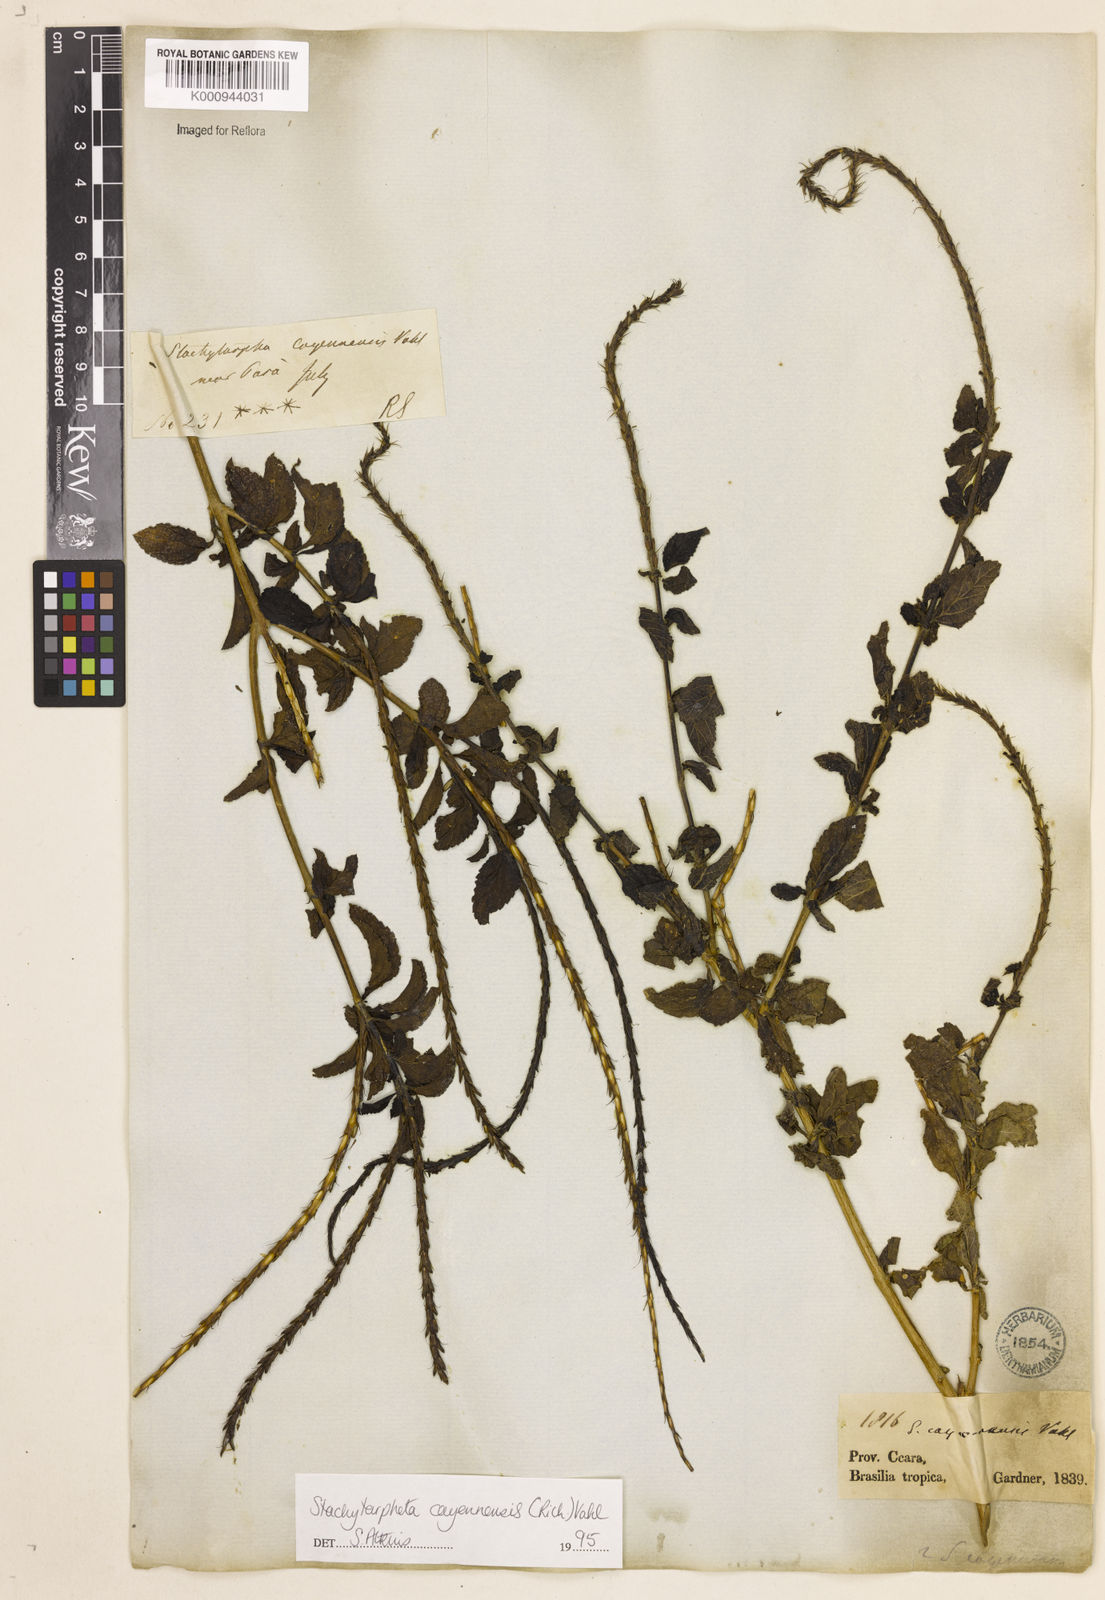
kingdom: Plantae
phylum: Tracheophyta
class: Magnoliopsida
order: Lamiales
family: Verbenaceae
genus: Aloysia
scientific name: Aloysia
